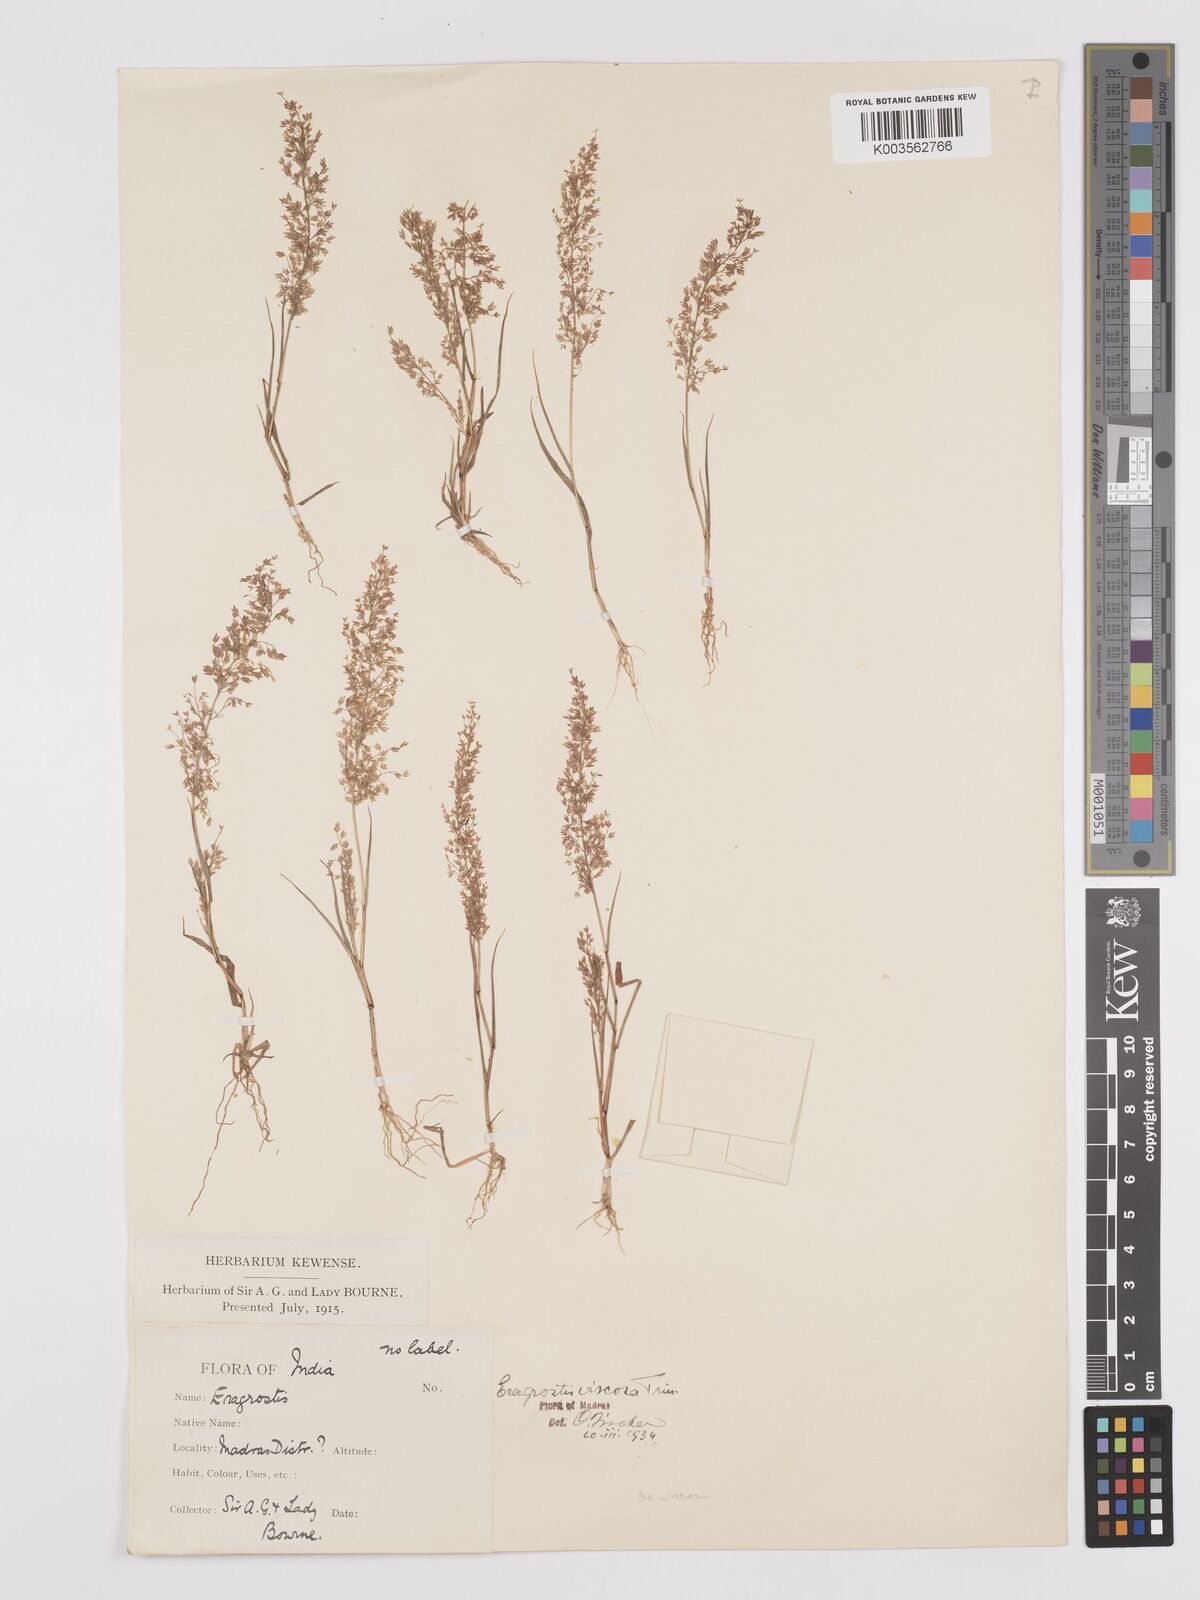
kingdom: Plantae
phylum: Tracheophyta
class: Liliopsida
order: Poales
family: Poaceae
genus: Eragrostis
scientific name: Eragrostis viscosa
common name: Sticky love grass
